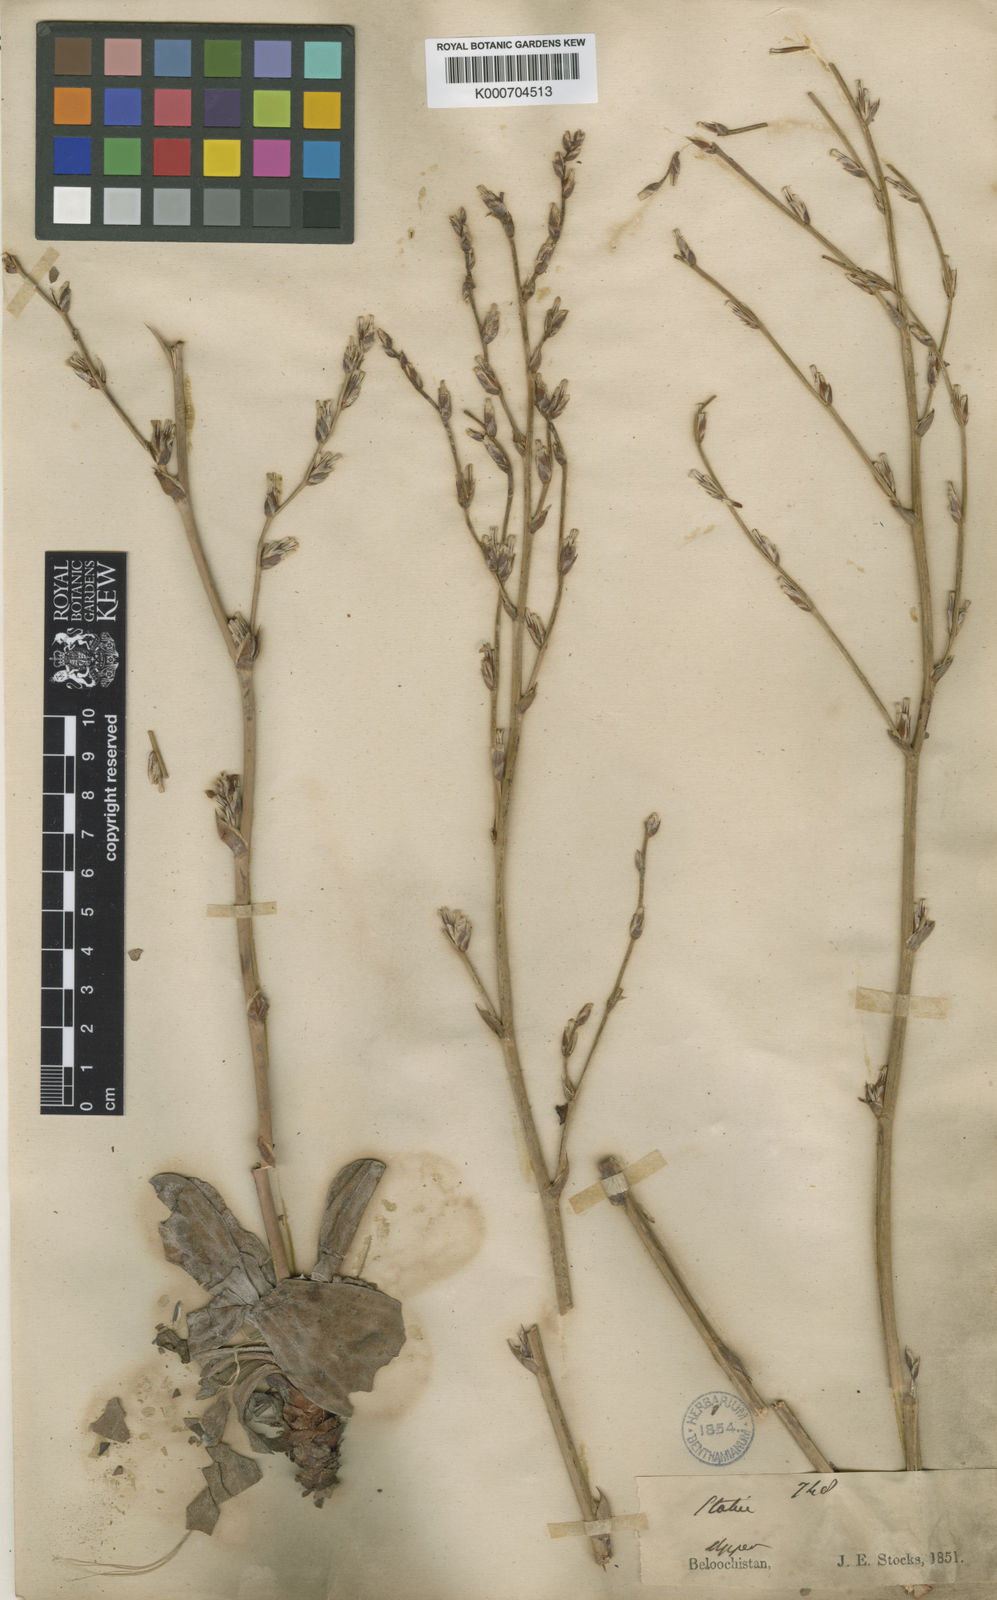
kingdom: Plantae
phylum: Tracheophyta
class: Magnoliopsida
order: Caryophyllales
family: Plumbaginaceae
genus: Dictyolimon
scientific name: Dictyolimon macrorrhabdos
